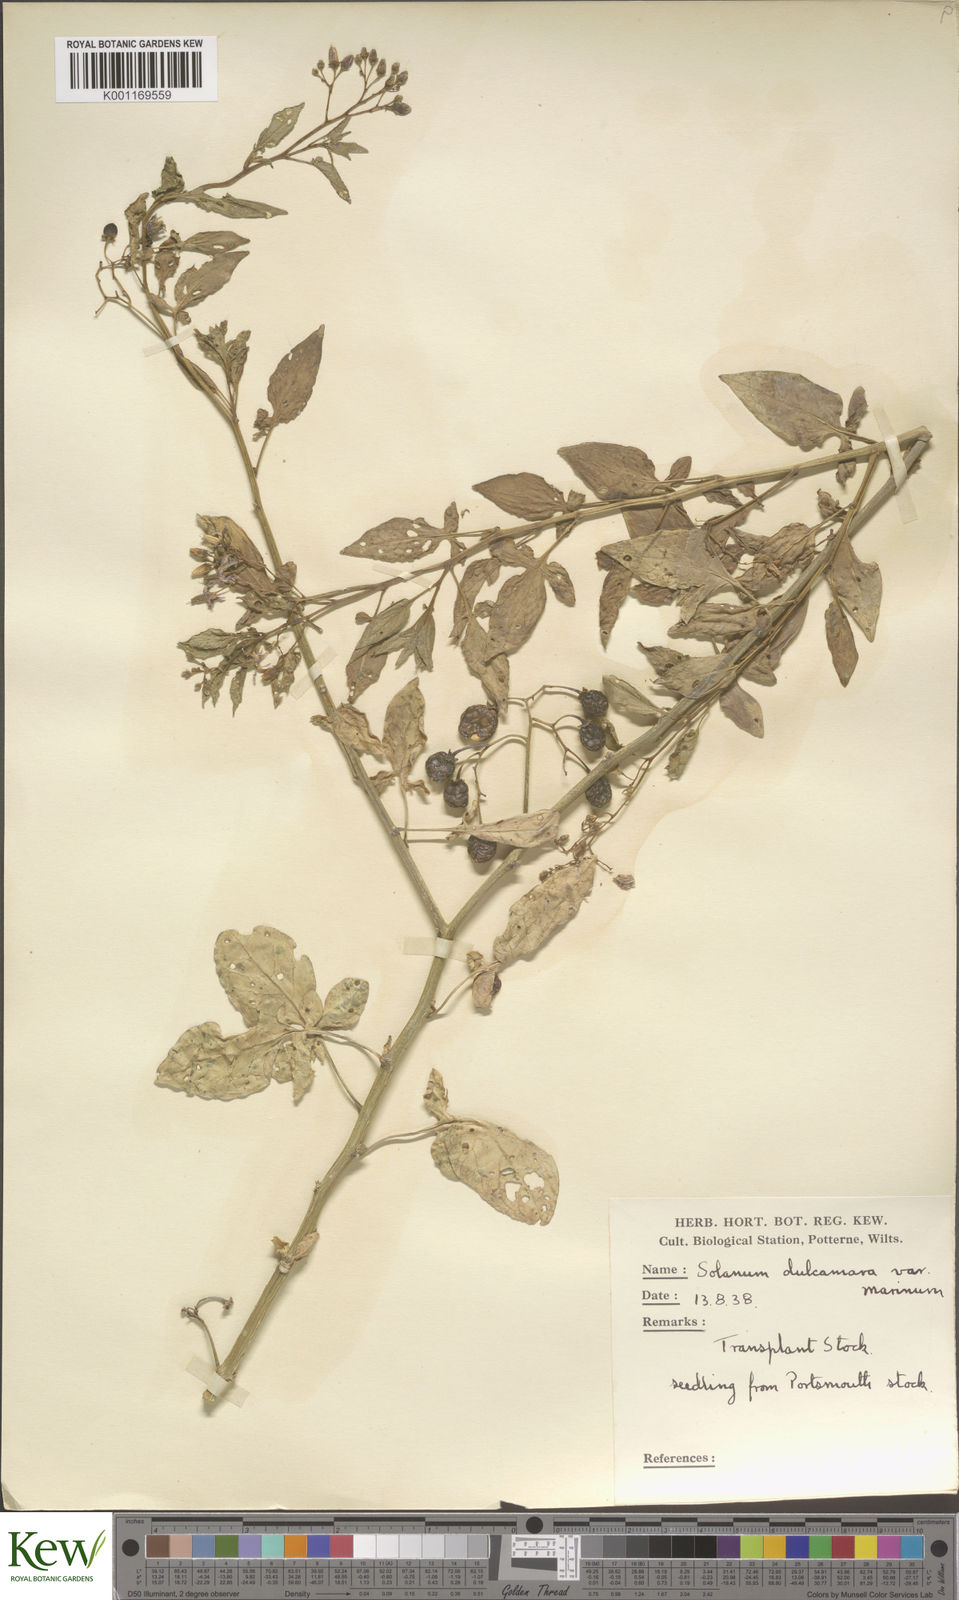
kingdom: Plantae
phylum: Tracheophyta
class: Magnoliopsida
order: Solanales
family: Solanaceae
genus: Solanum
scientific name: Solanum dulcamara
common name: Climbing nightshade
